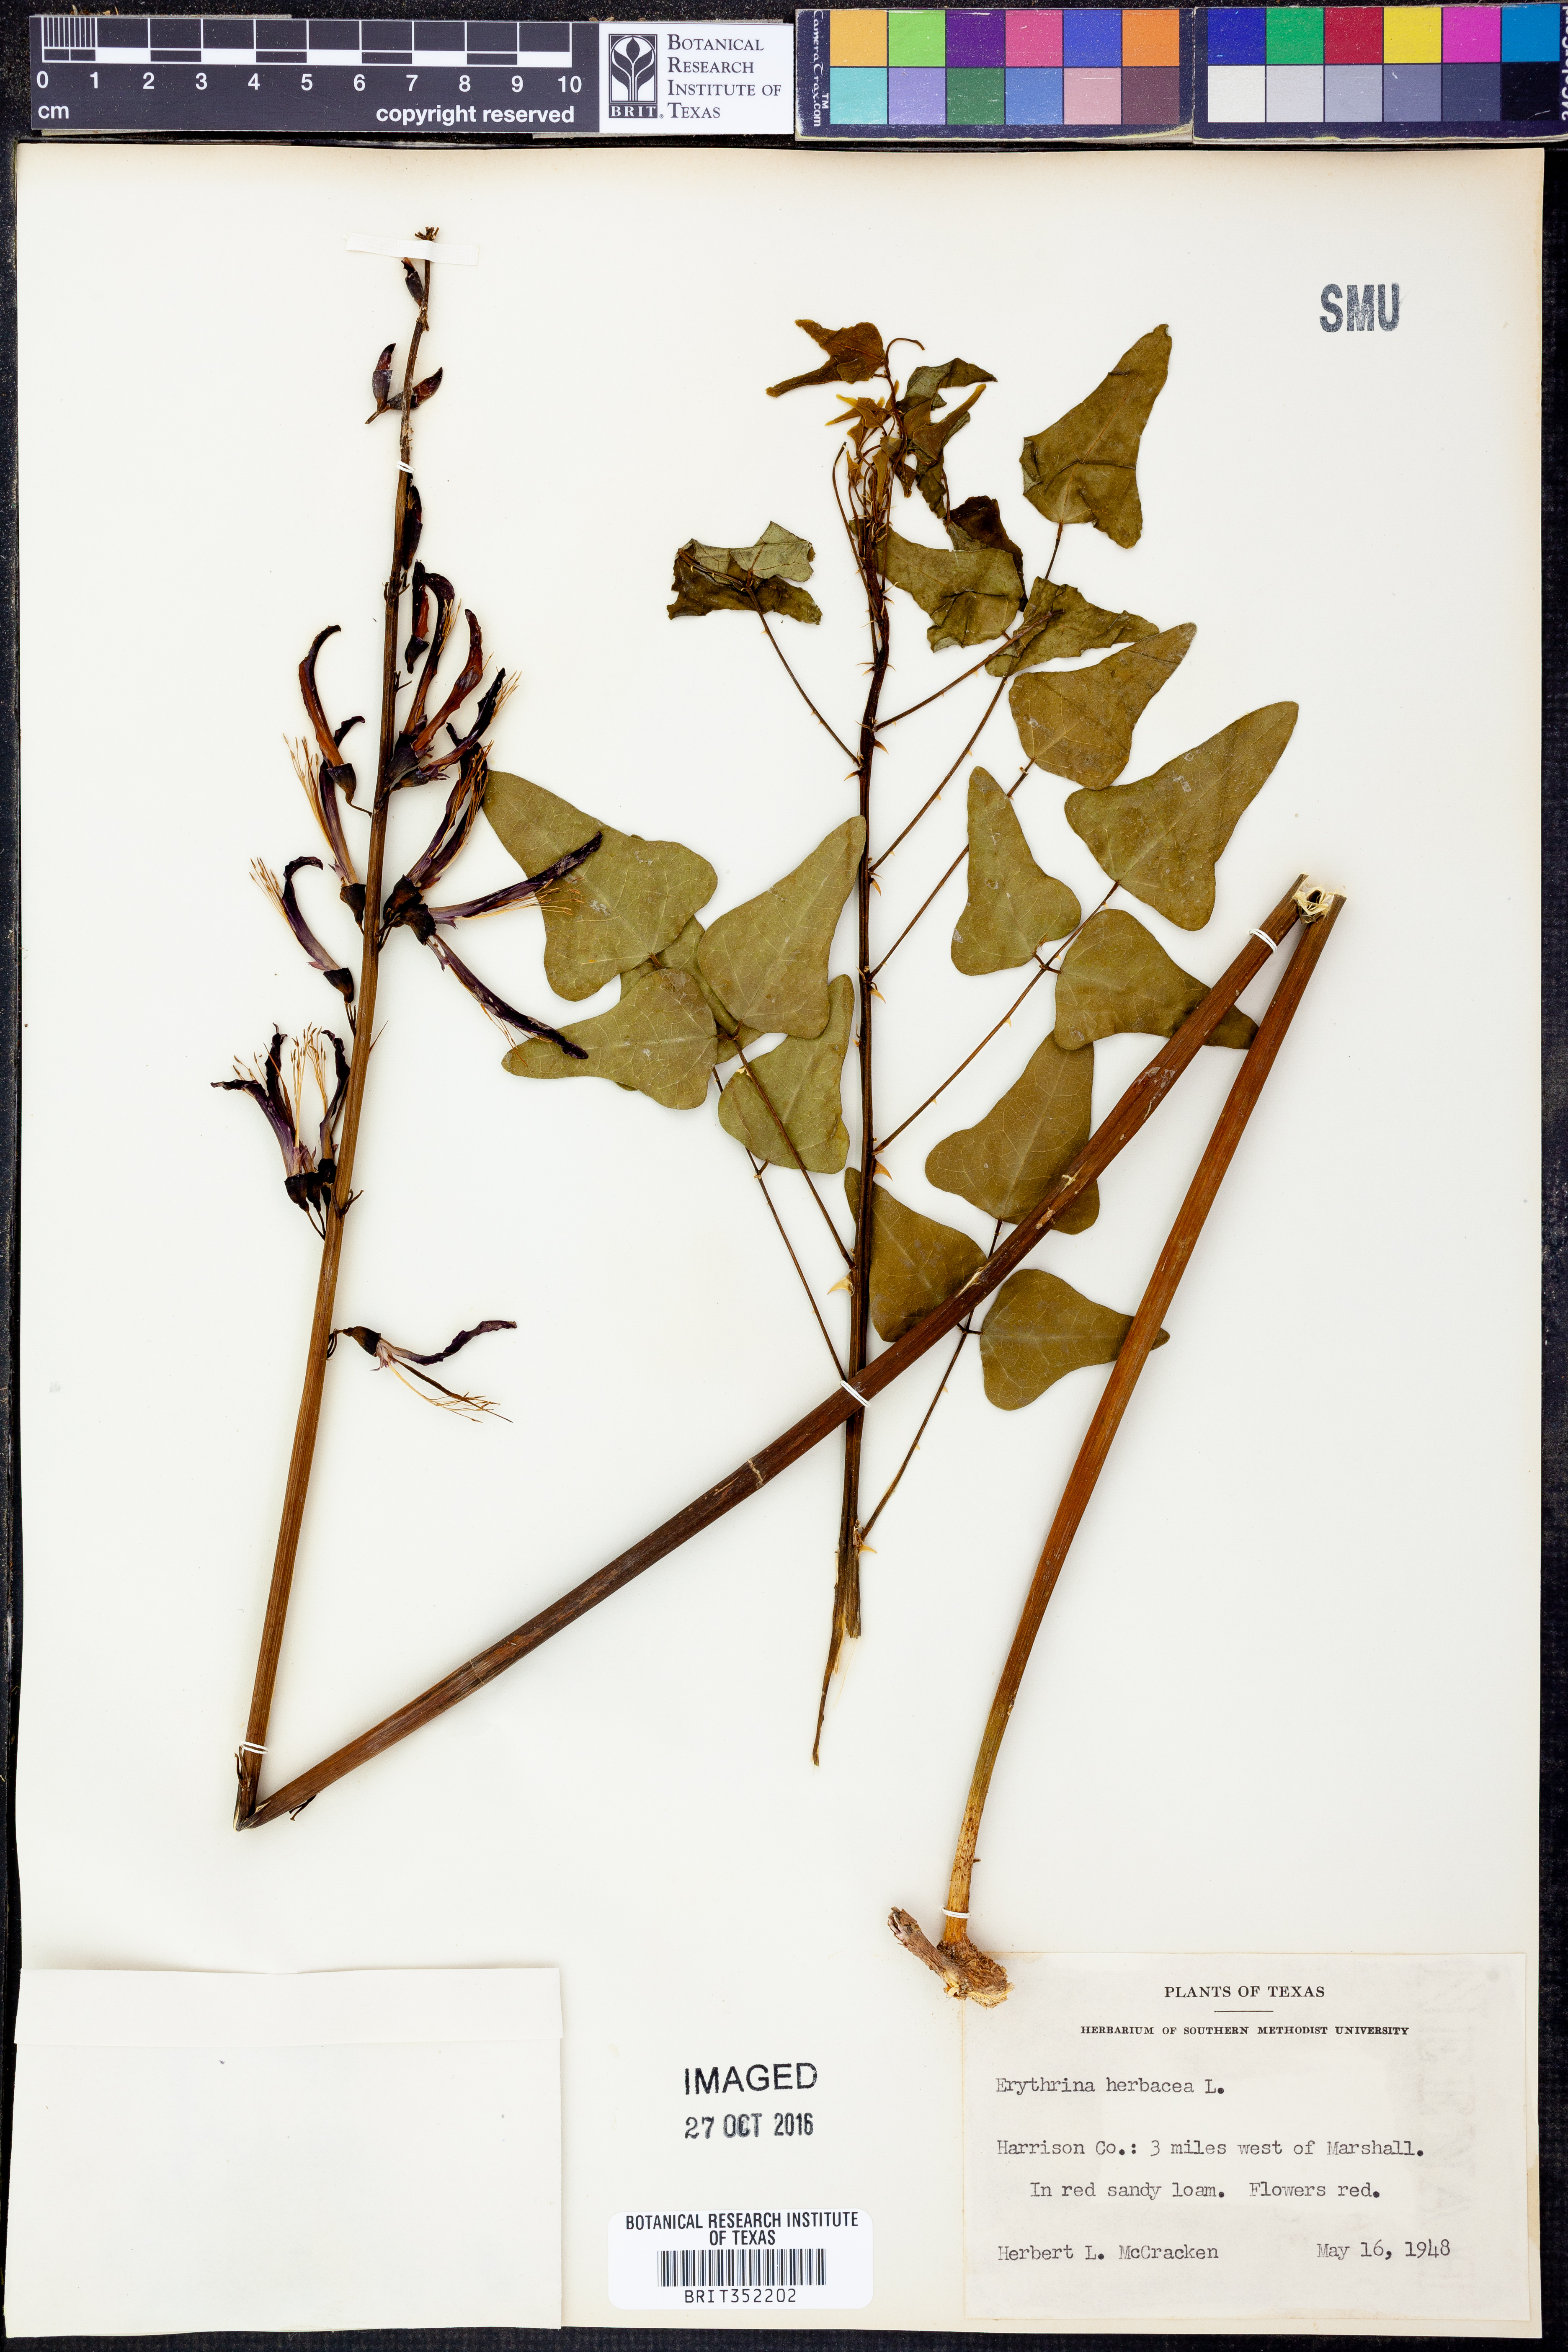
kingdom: Plantae
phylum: Tracheophyta
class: Magnoliopsida
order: Fabales
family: Fabaceae
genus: Erythrina
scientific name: Erythrina herbacea
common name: Coral-bean
